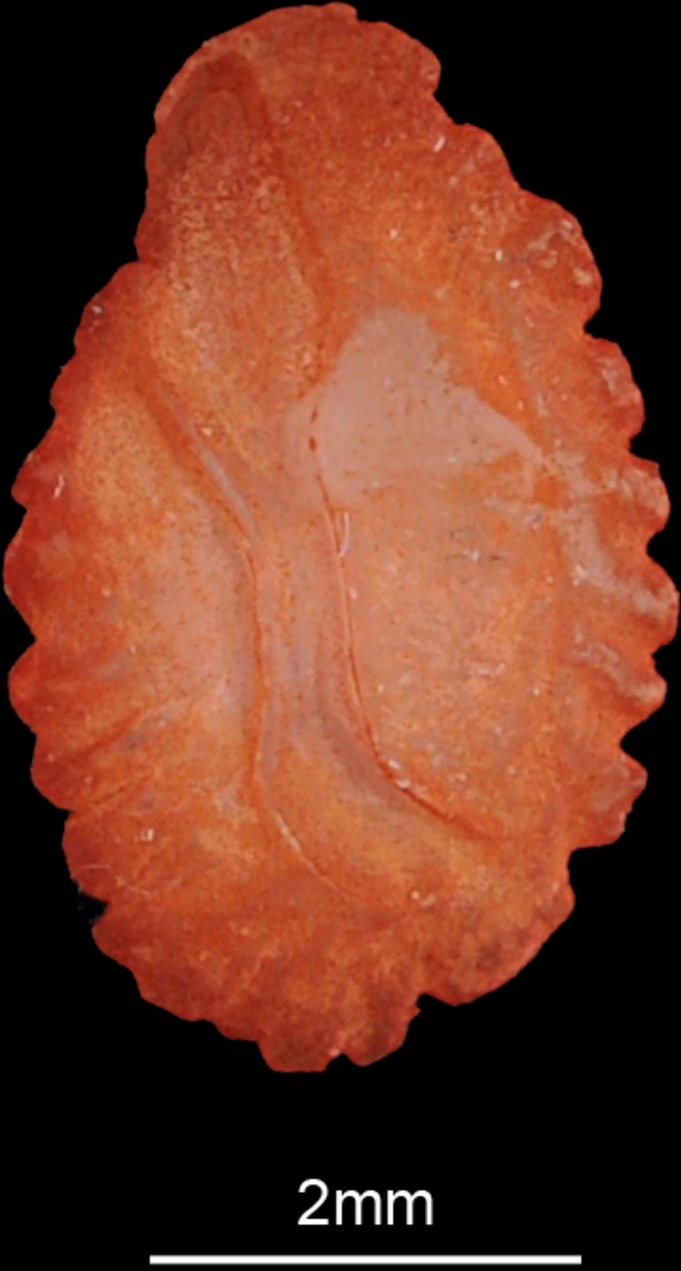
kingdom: Animalia
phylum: Chordata
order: Perciformes
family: Cichlidae
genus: Oreochromis
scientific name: Oreochromis andersonii
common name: Threespot tilapia
